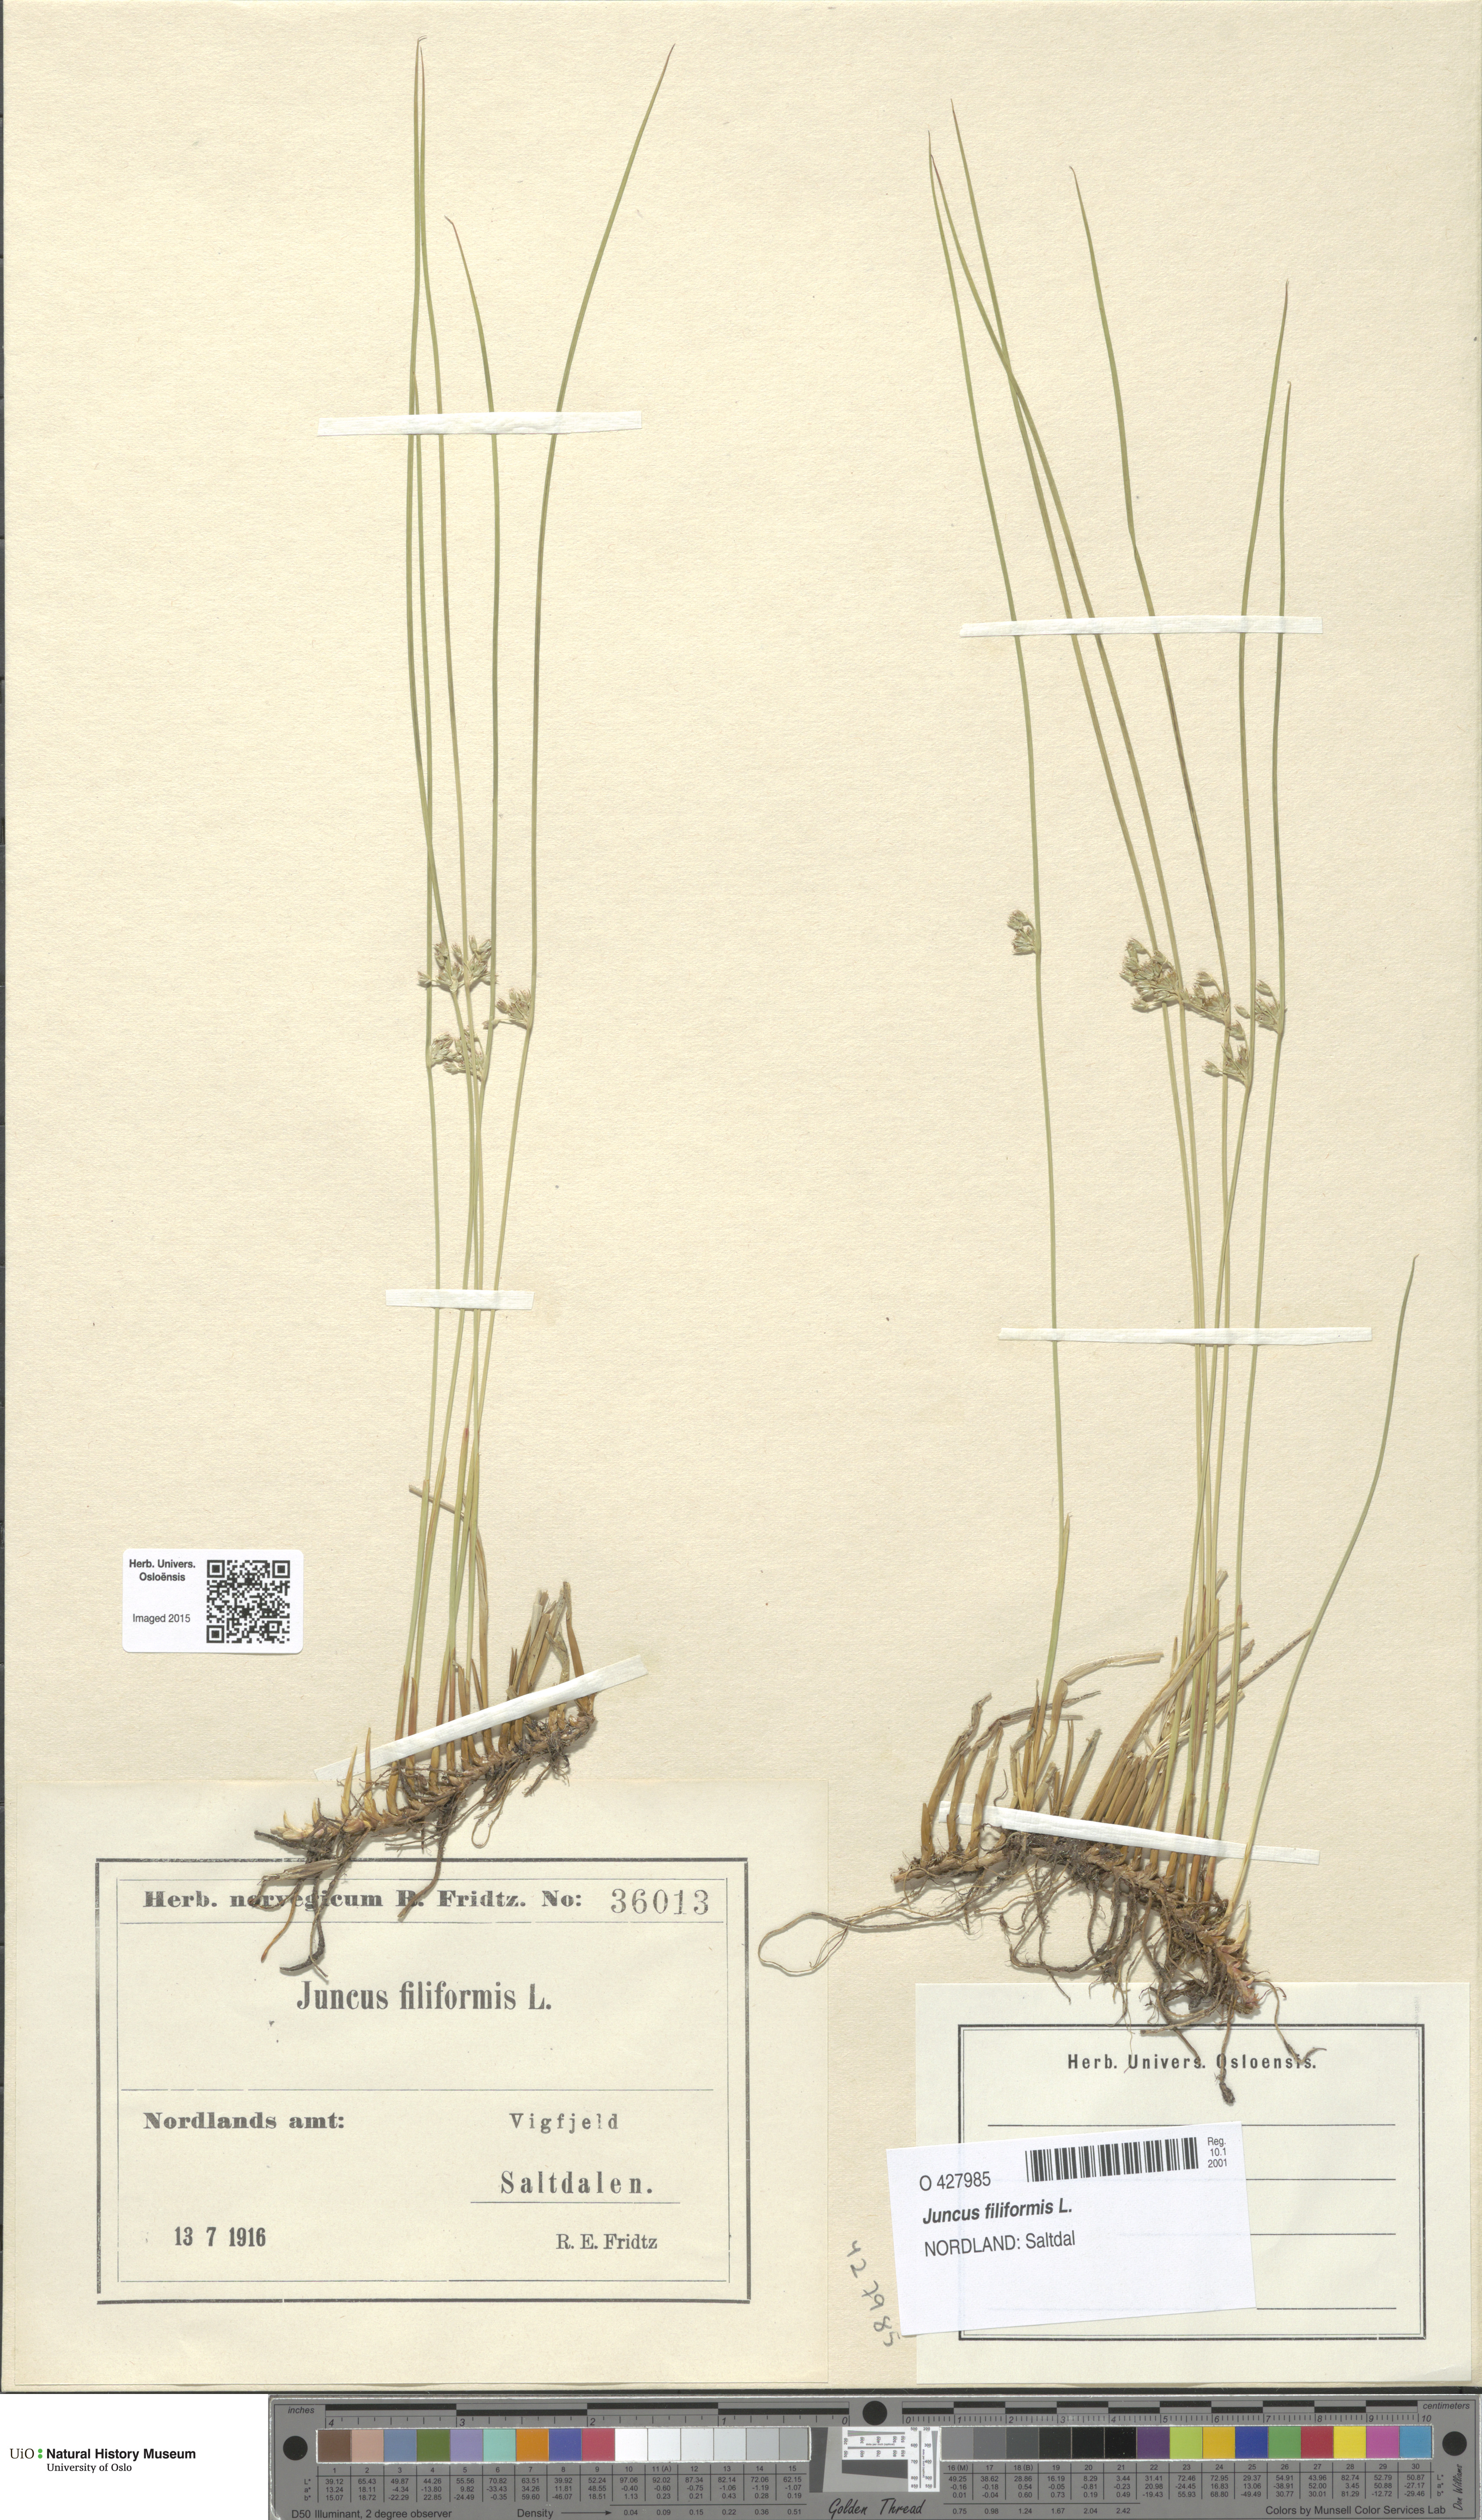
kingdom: Plantae
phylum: Tracheophyta
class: Liliopsida
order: Poales
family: Juncaceae
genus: Juncus
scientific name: Juncus filiformis
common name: Thread rush
